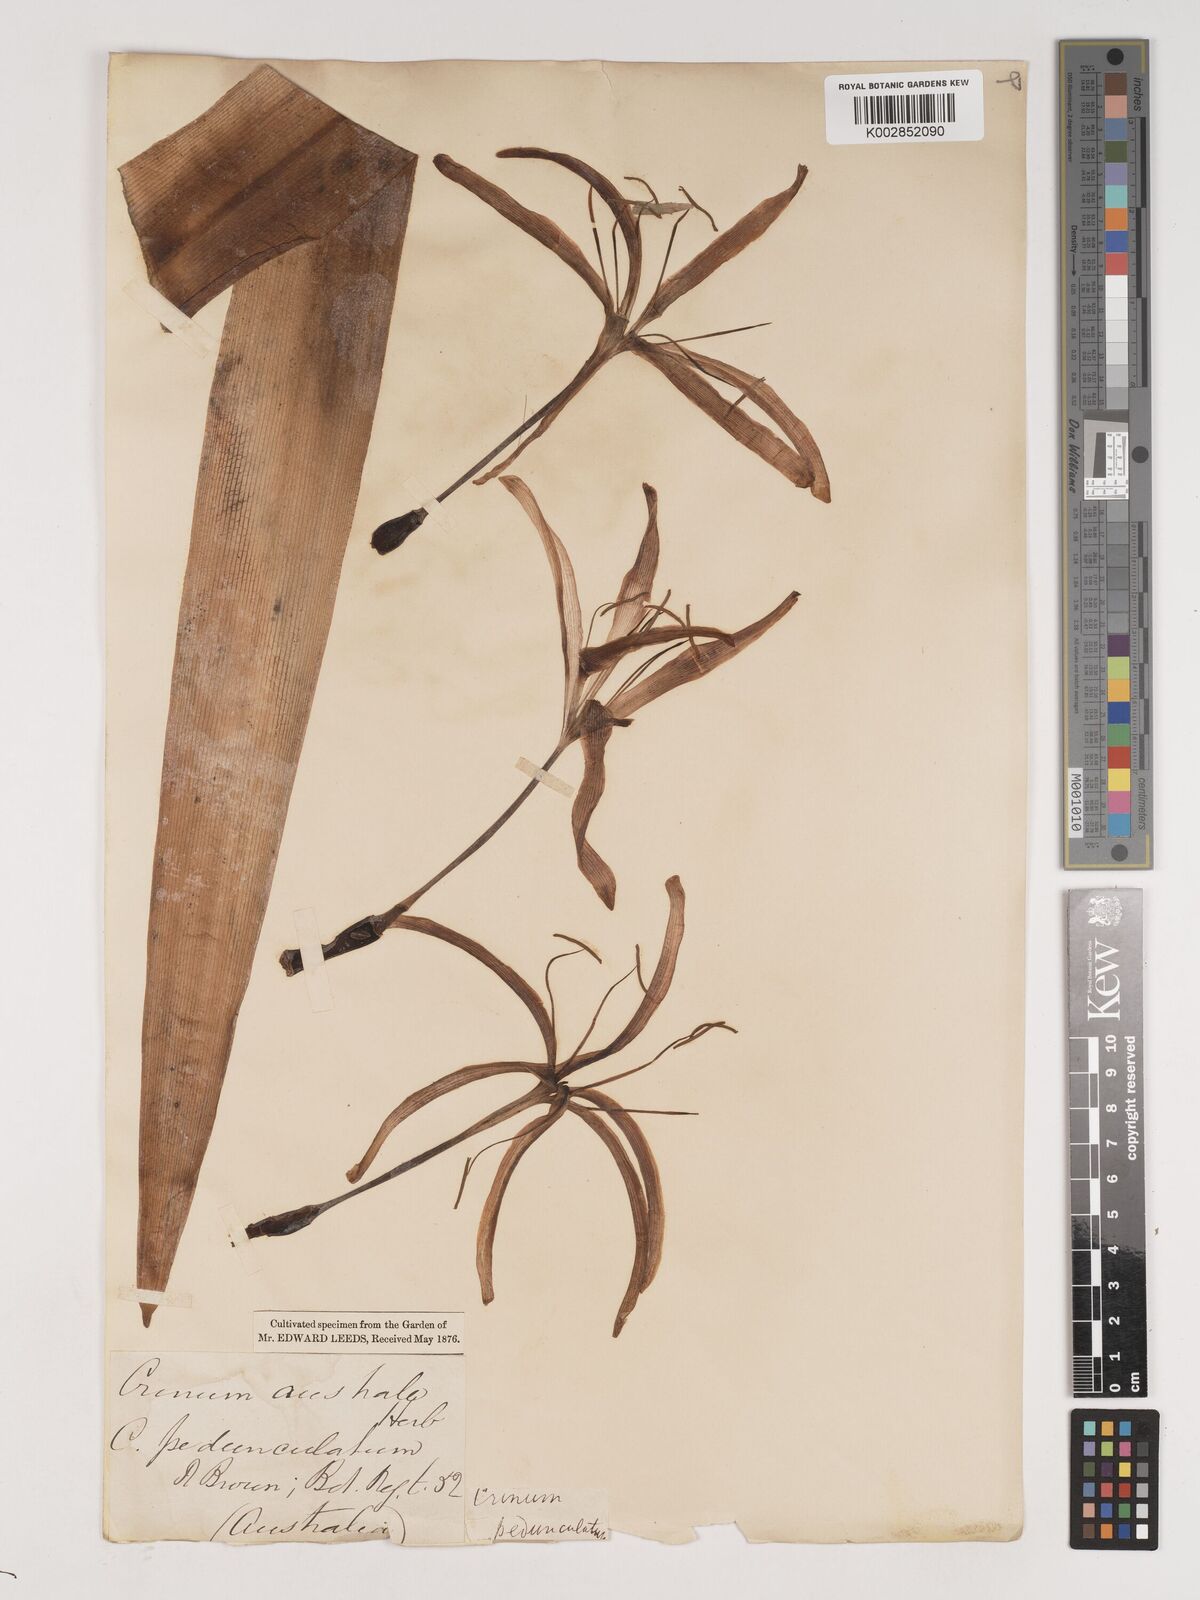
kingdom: Plantae
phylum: Tracheophyta
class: Liliopsida
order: Asparagales
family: Amaryllidaceae
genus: Crinum
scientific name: Crinum asiaticum
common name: Poisonbulb
